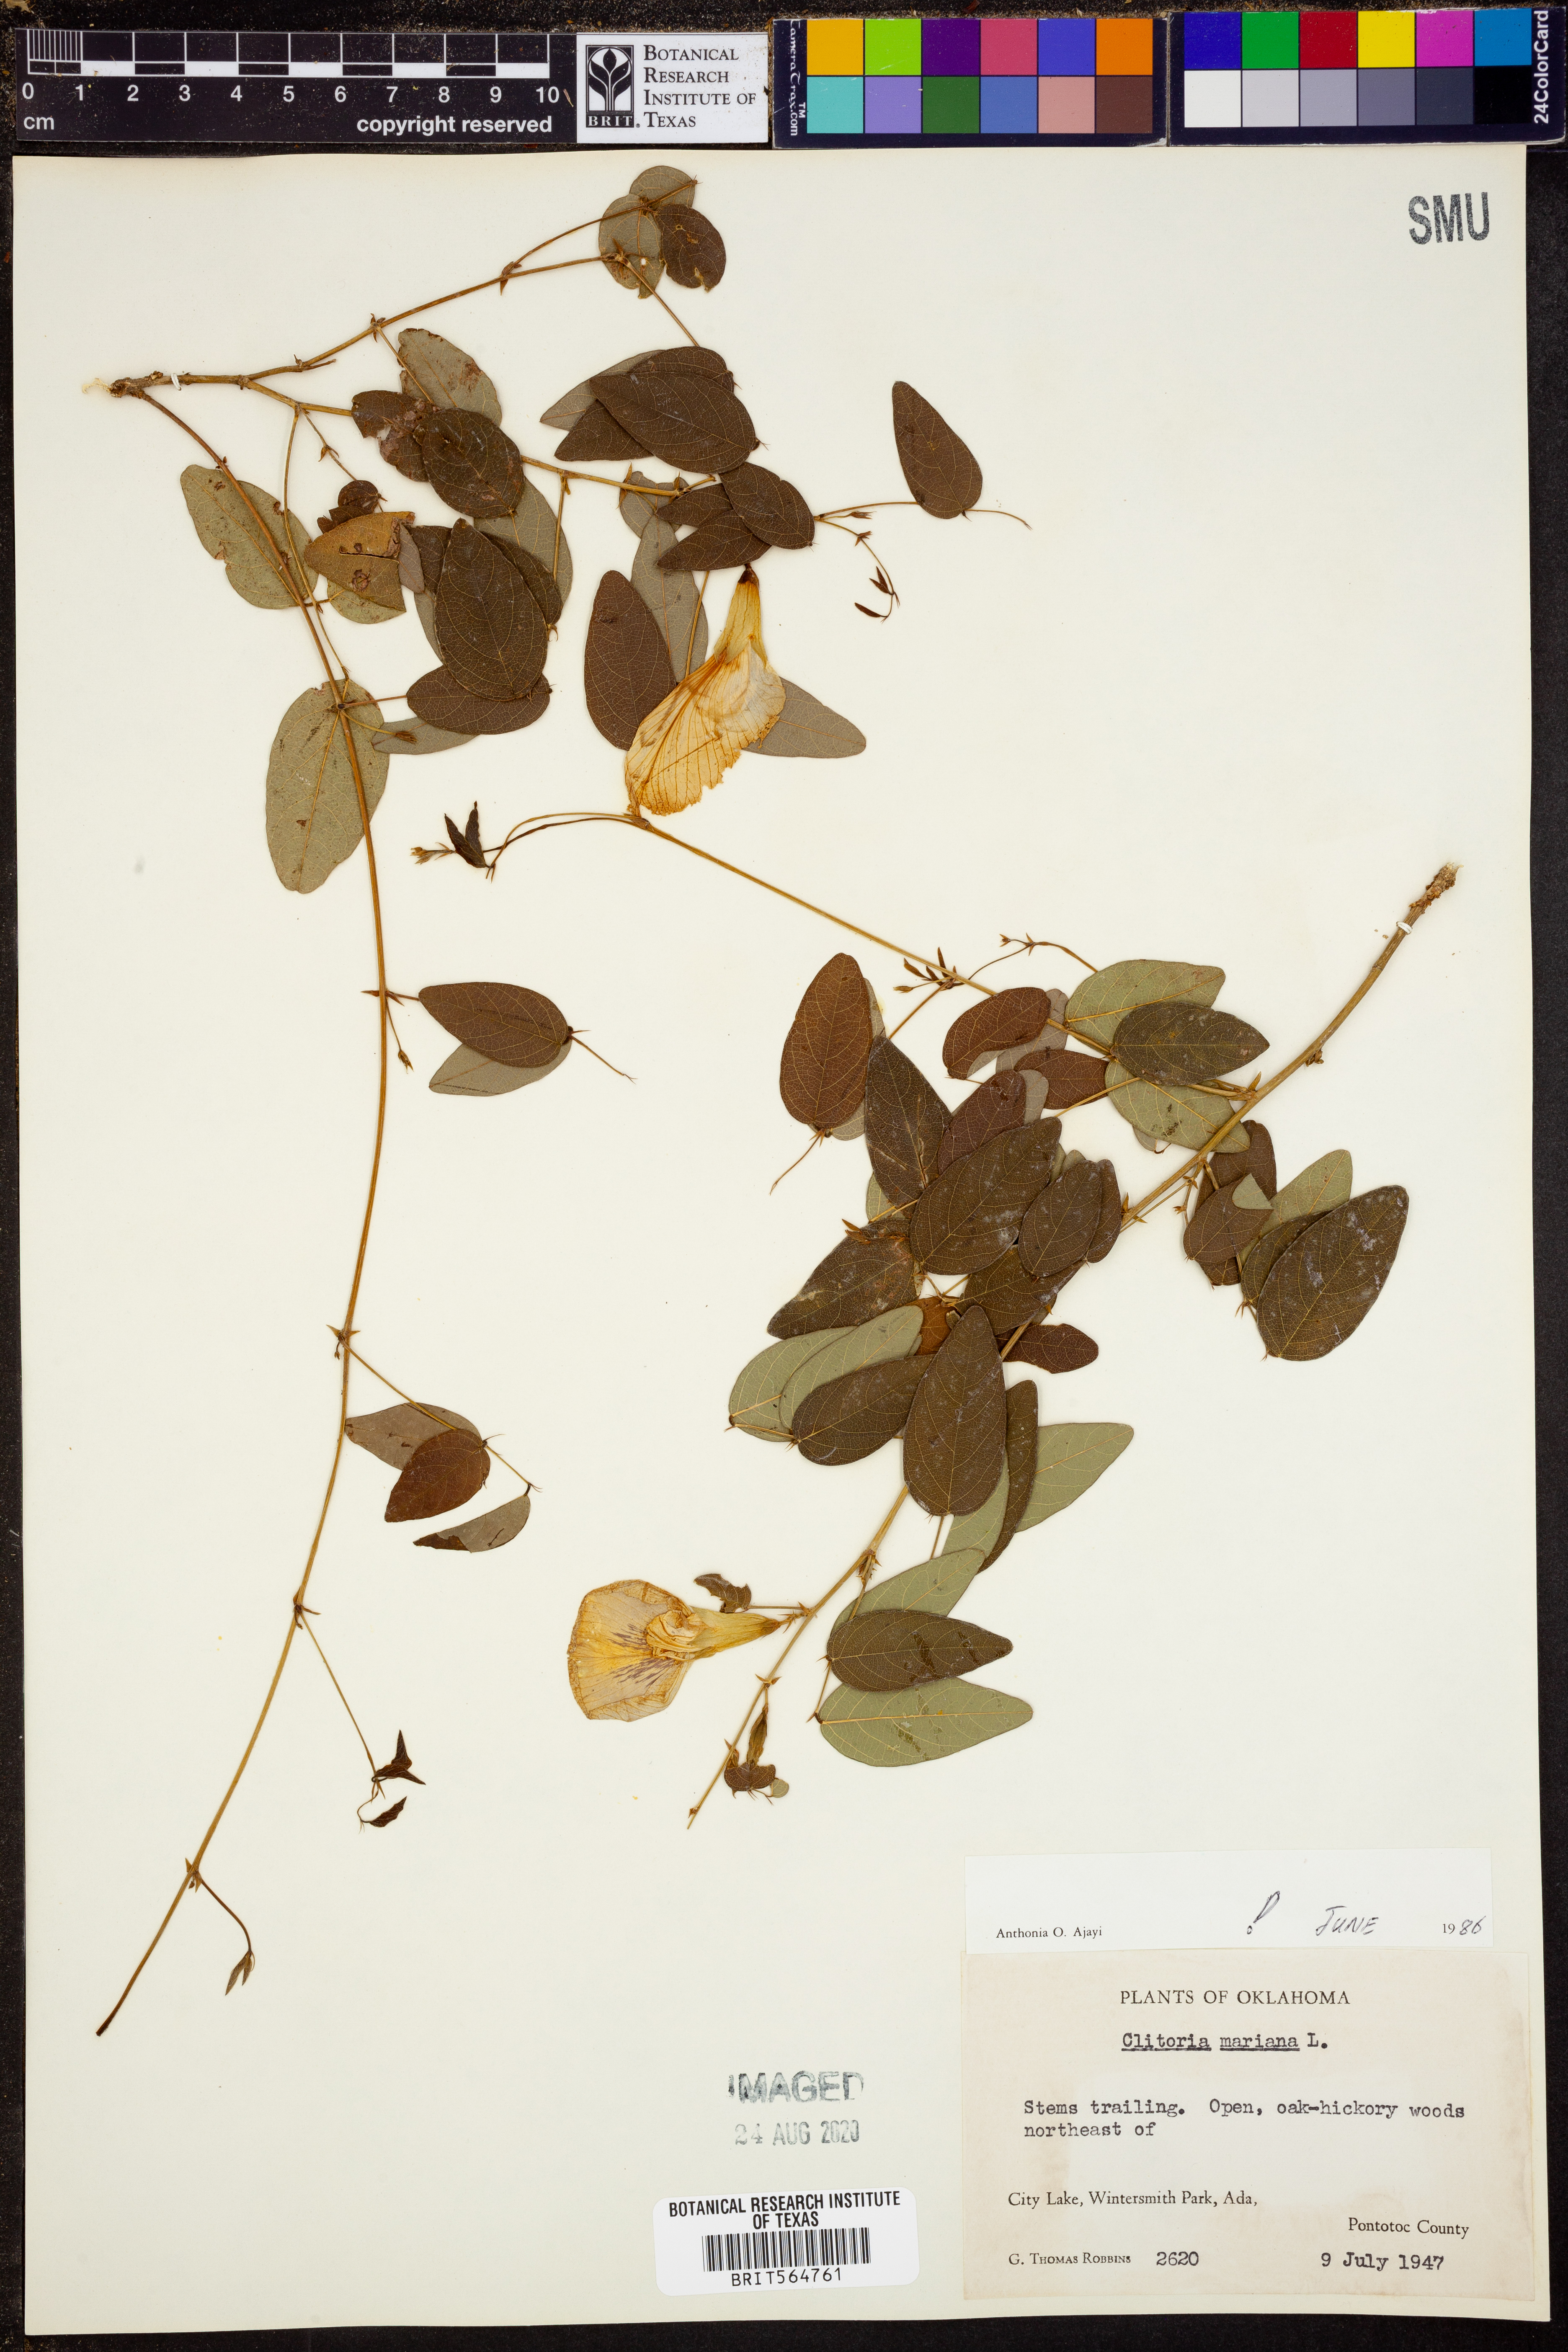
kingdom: Plantae
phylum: Tracheophyta
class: Magnoliopsida
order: Fabales
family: Fabaceae
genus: Clitoria
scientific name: Clitoria mariana
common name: Butterfly-pea
